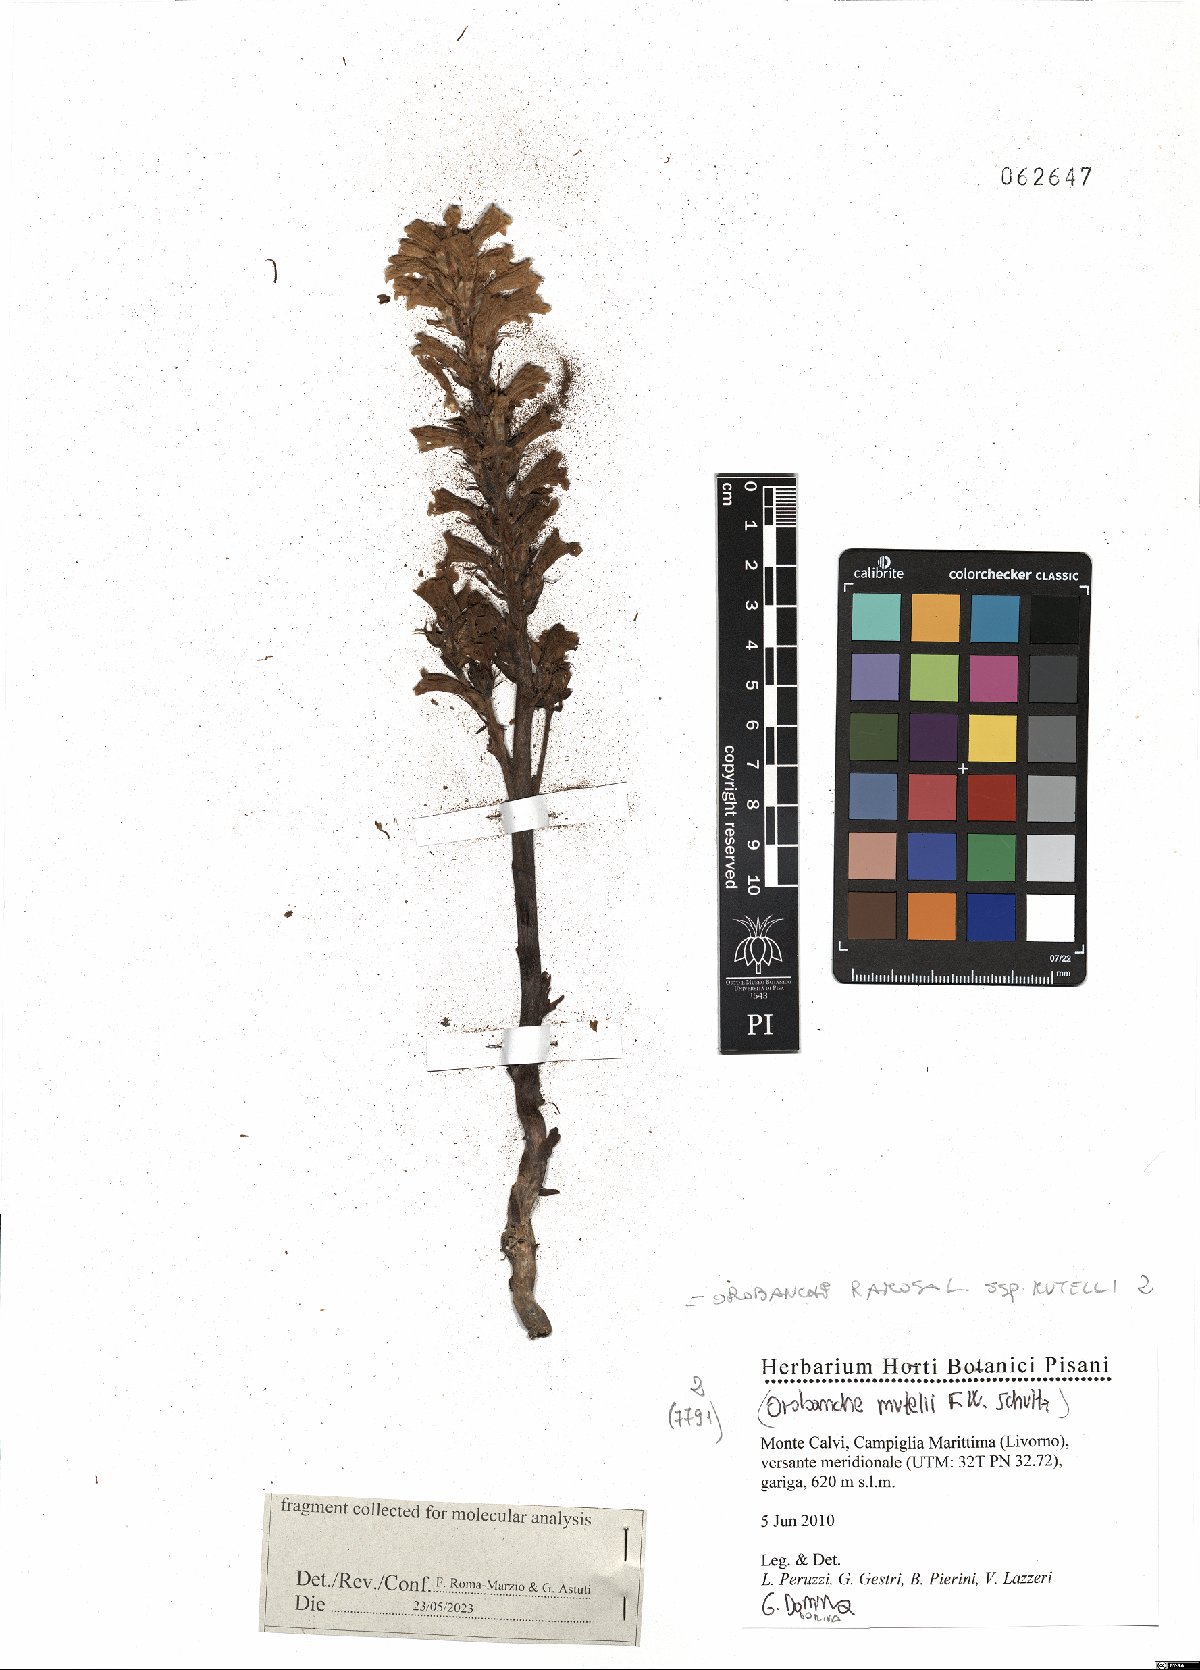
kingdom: Plantae
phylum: Tracheophyta
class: Magnoliopsida
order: Lamiales
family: Orobanchaceae
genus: Phelipanche
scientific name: Phelipanche mutelii
